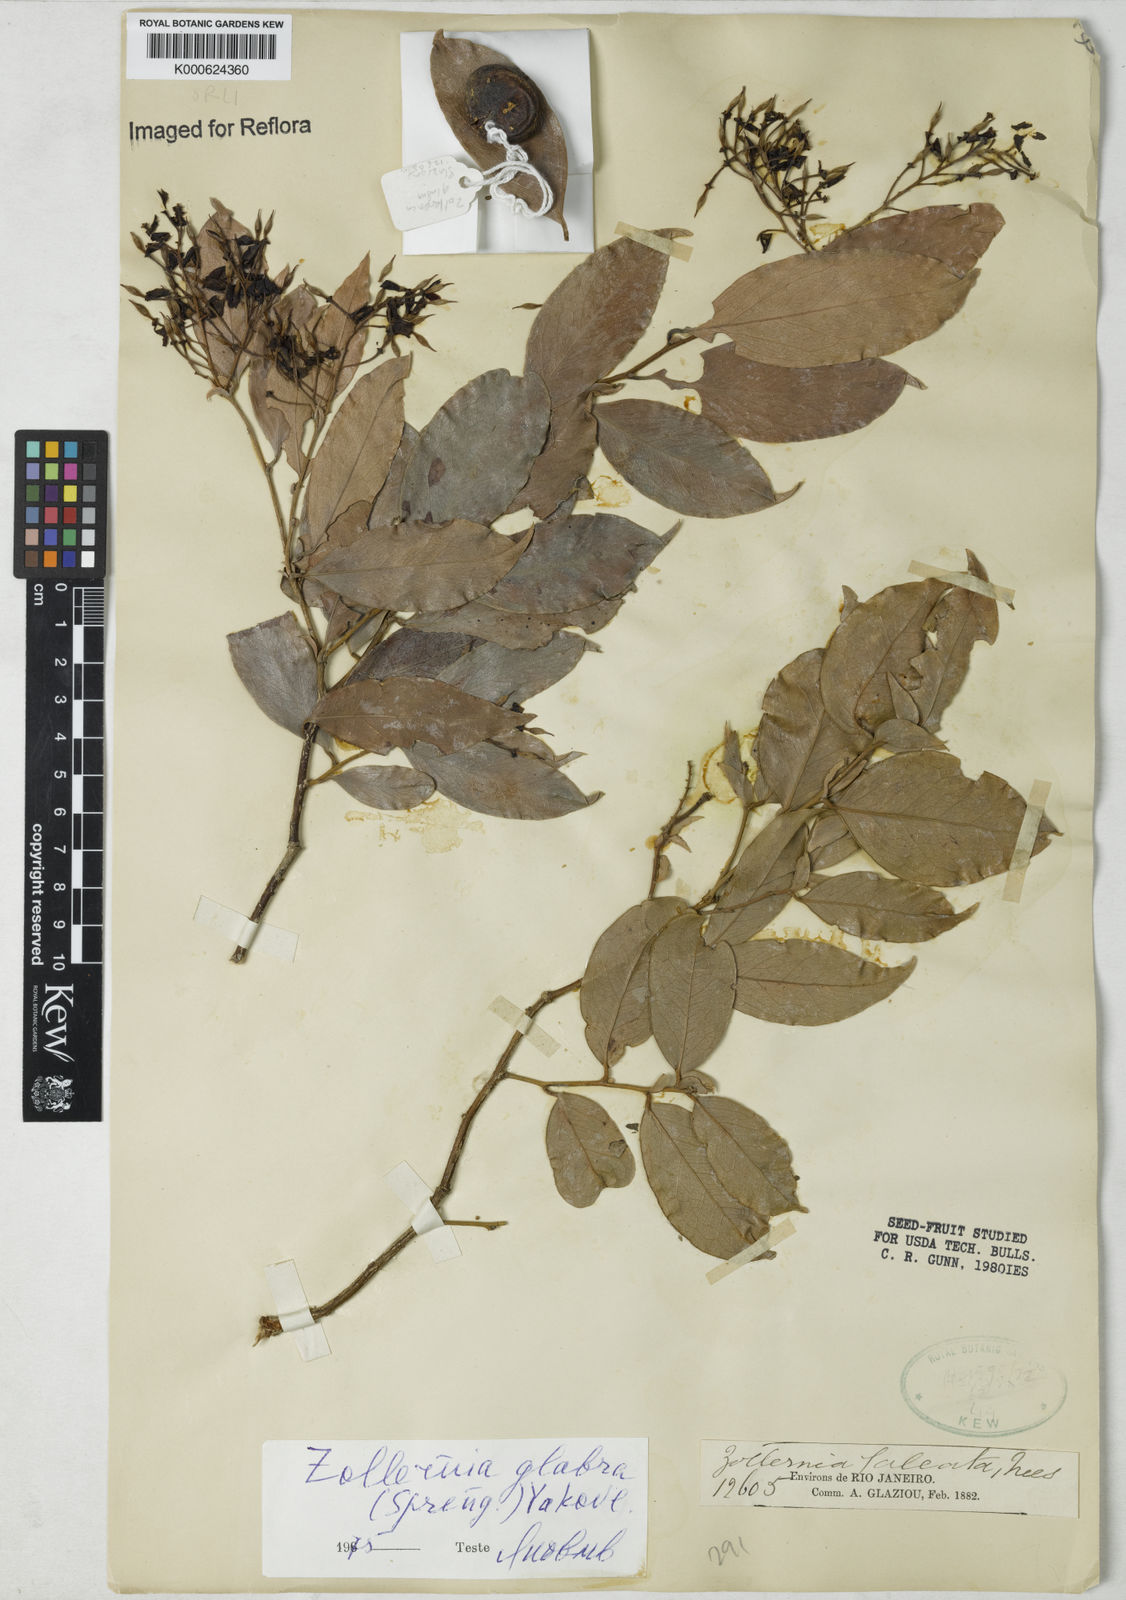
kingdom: Plantae
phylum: Tracheophyta
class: Magnoliopsida
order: Fabales
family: Fabaceae
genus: Zollernia
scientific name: Zollernia glabra
